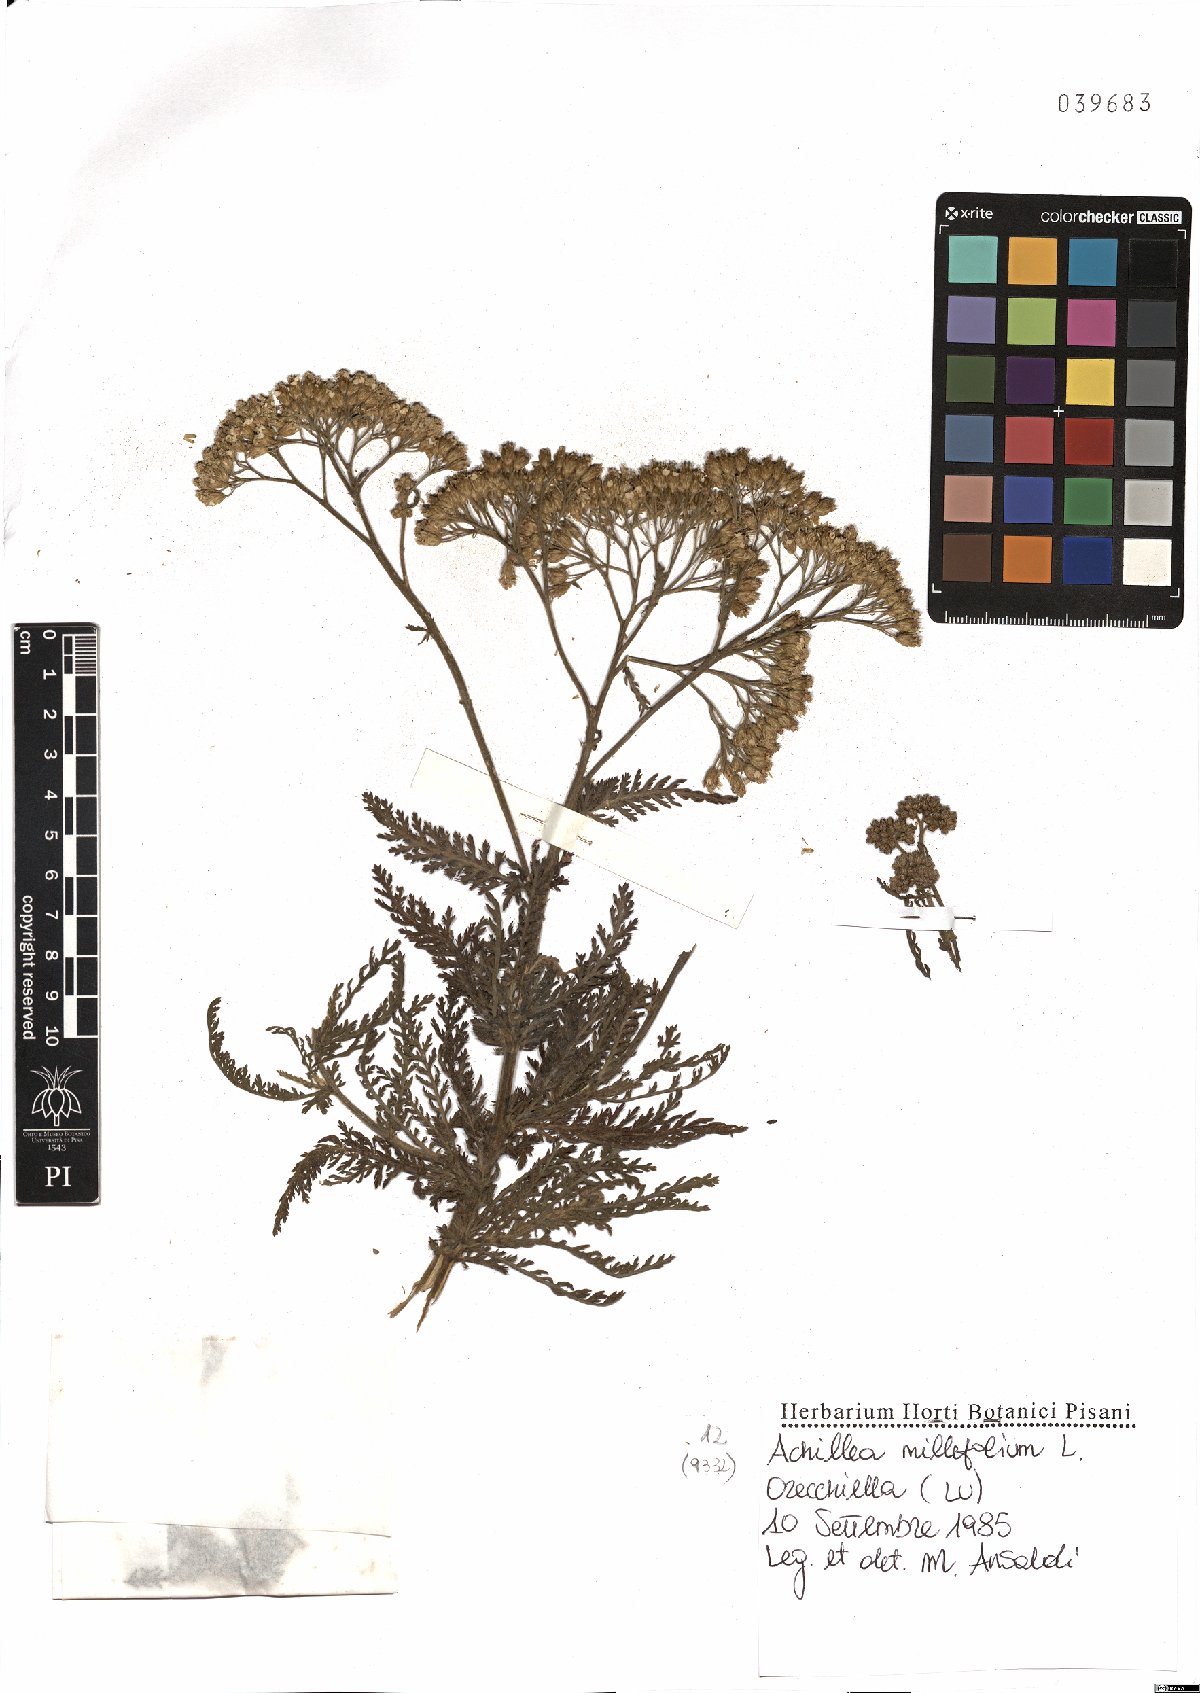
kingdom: Plantae
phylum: Tracheophyta
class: Magnoliopsida
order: Asterales
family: Asteraceae
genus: Achillea
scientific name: Achillea millefolium
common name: Yarrow
